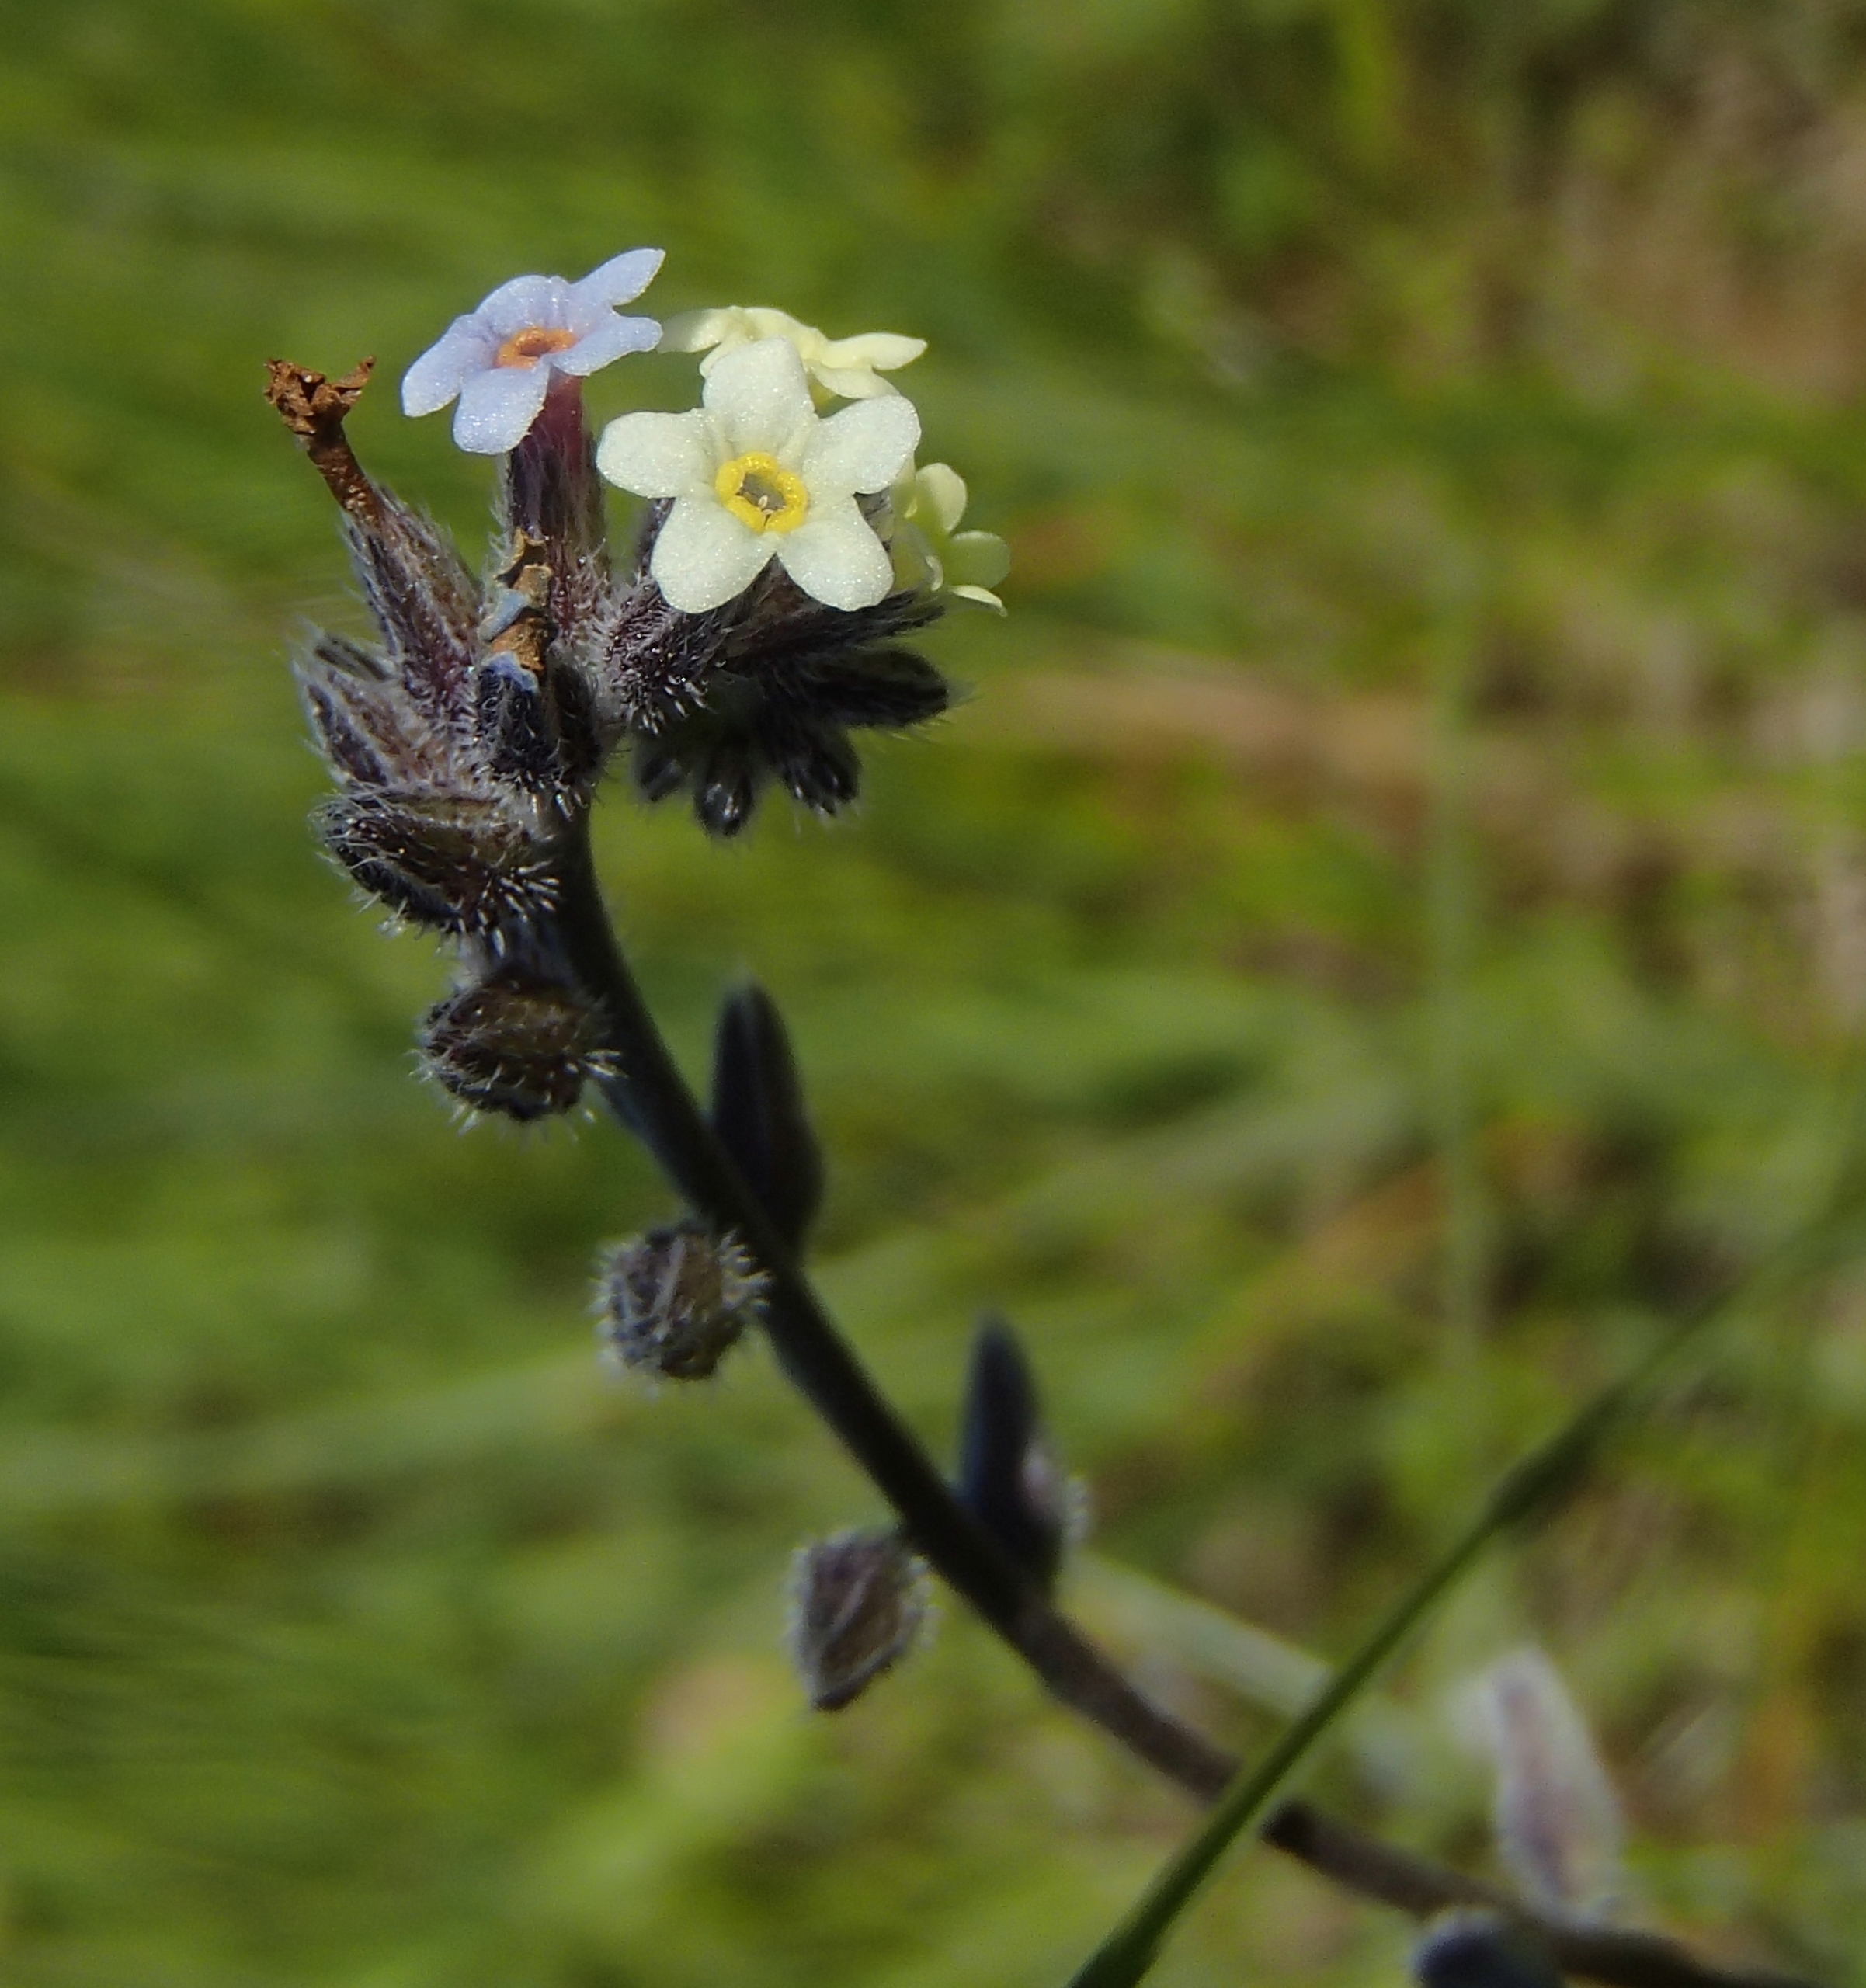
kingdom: Plantae
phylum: Tracheophyta
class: Magnoliopsida
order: Boraginales
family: Boraginaceae
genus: Myosotis
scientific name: Myosotis discolor
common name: Forskelligfarvet forglemmigej
